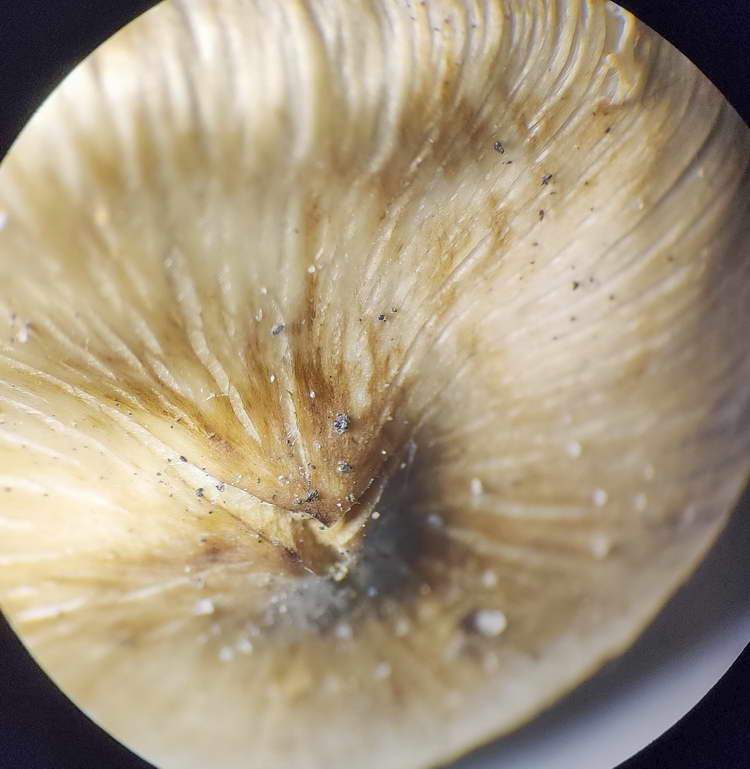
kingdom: Fungi
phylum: Basidiomycota
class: Agaricomycetes
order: Agaricales
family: Inocybaceae
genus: Pseudosperma
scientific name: Pseudosperma
